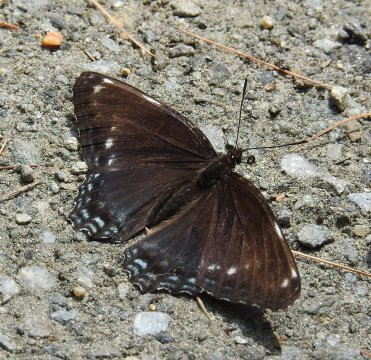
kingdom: Animalia
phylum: Arthropoda
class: Insecta
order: Lepidoptera
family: Nymphalidae
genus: Limenitis
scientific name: Limenitis arthemis
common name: Red-spotted Admiral
